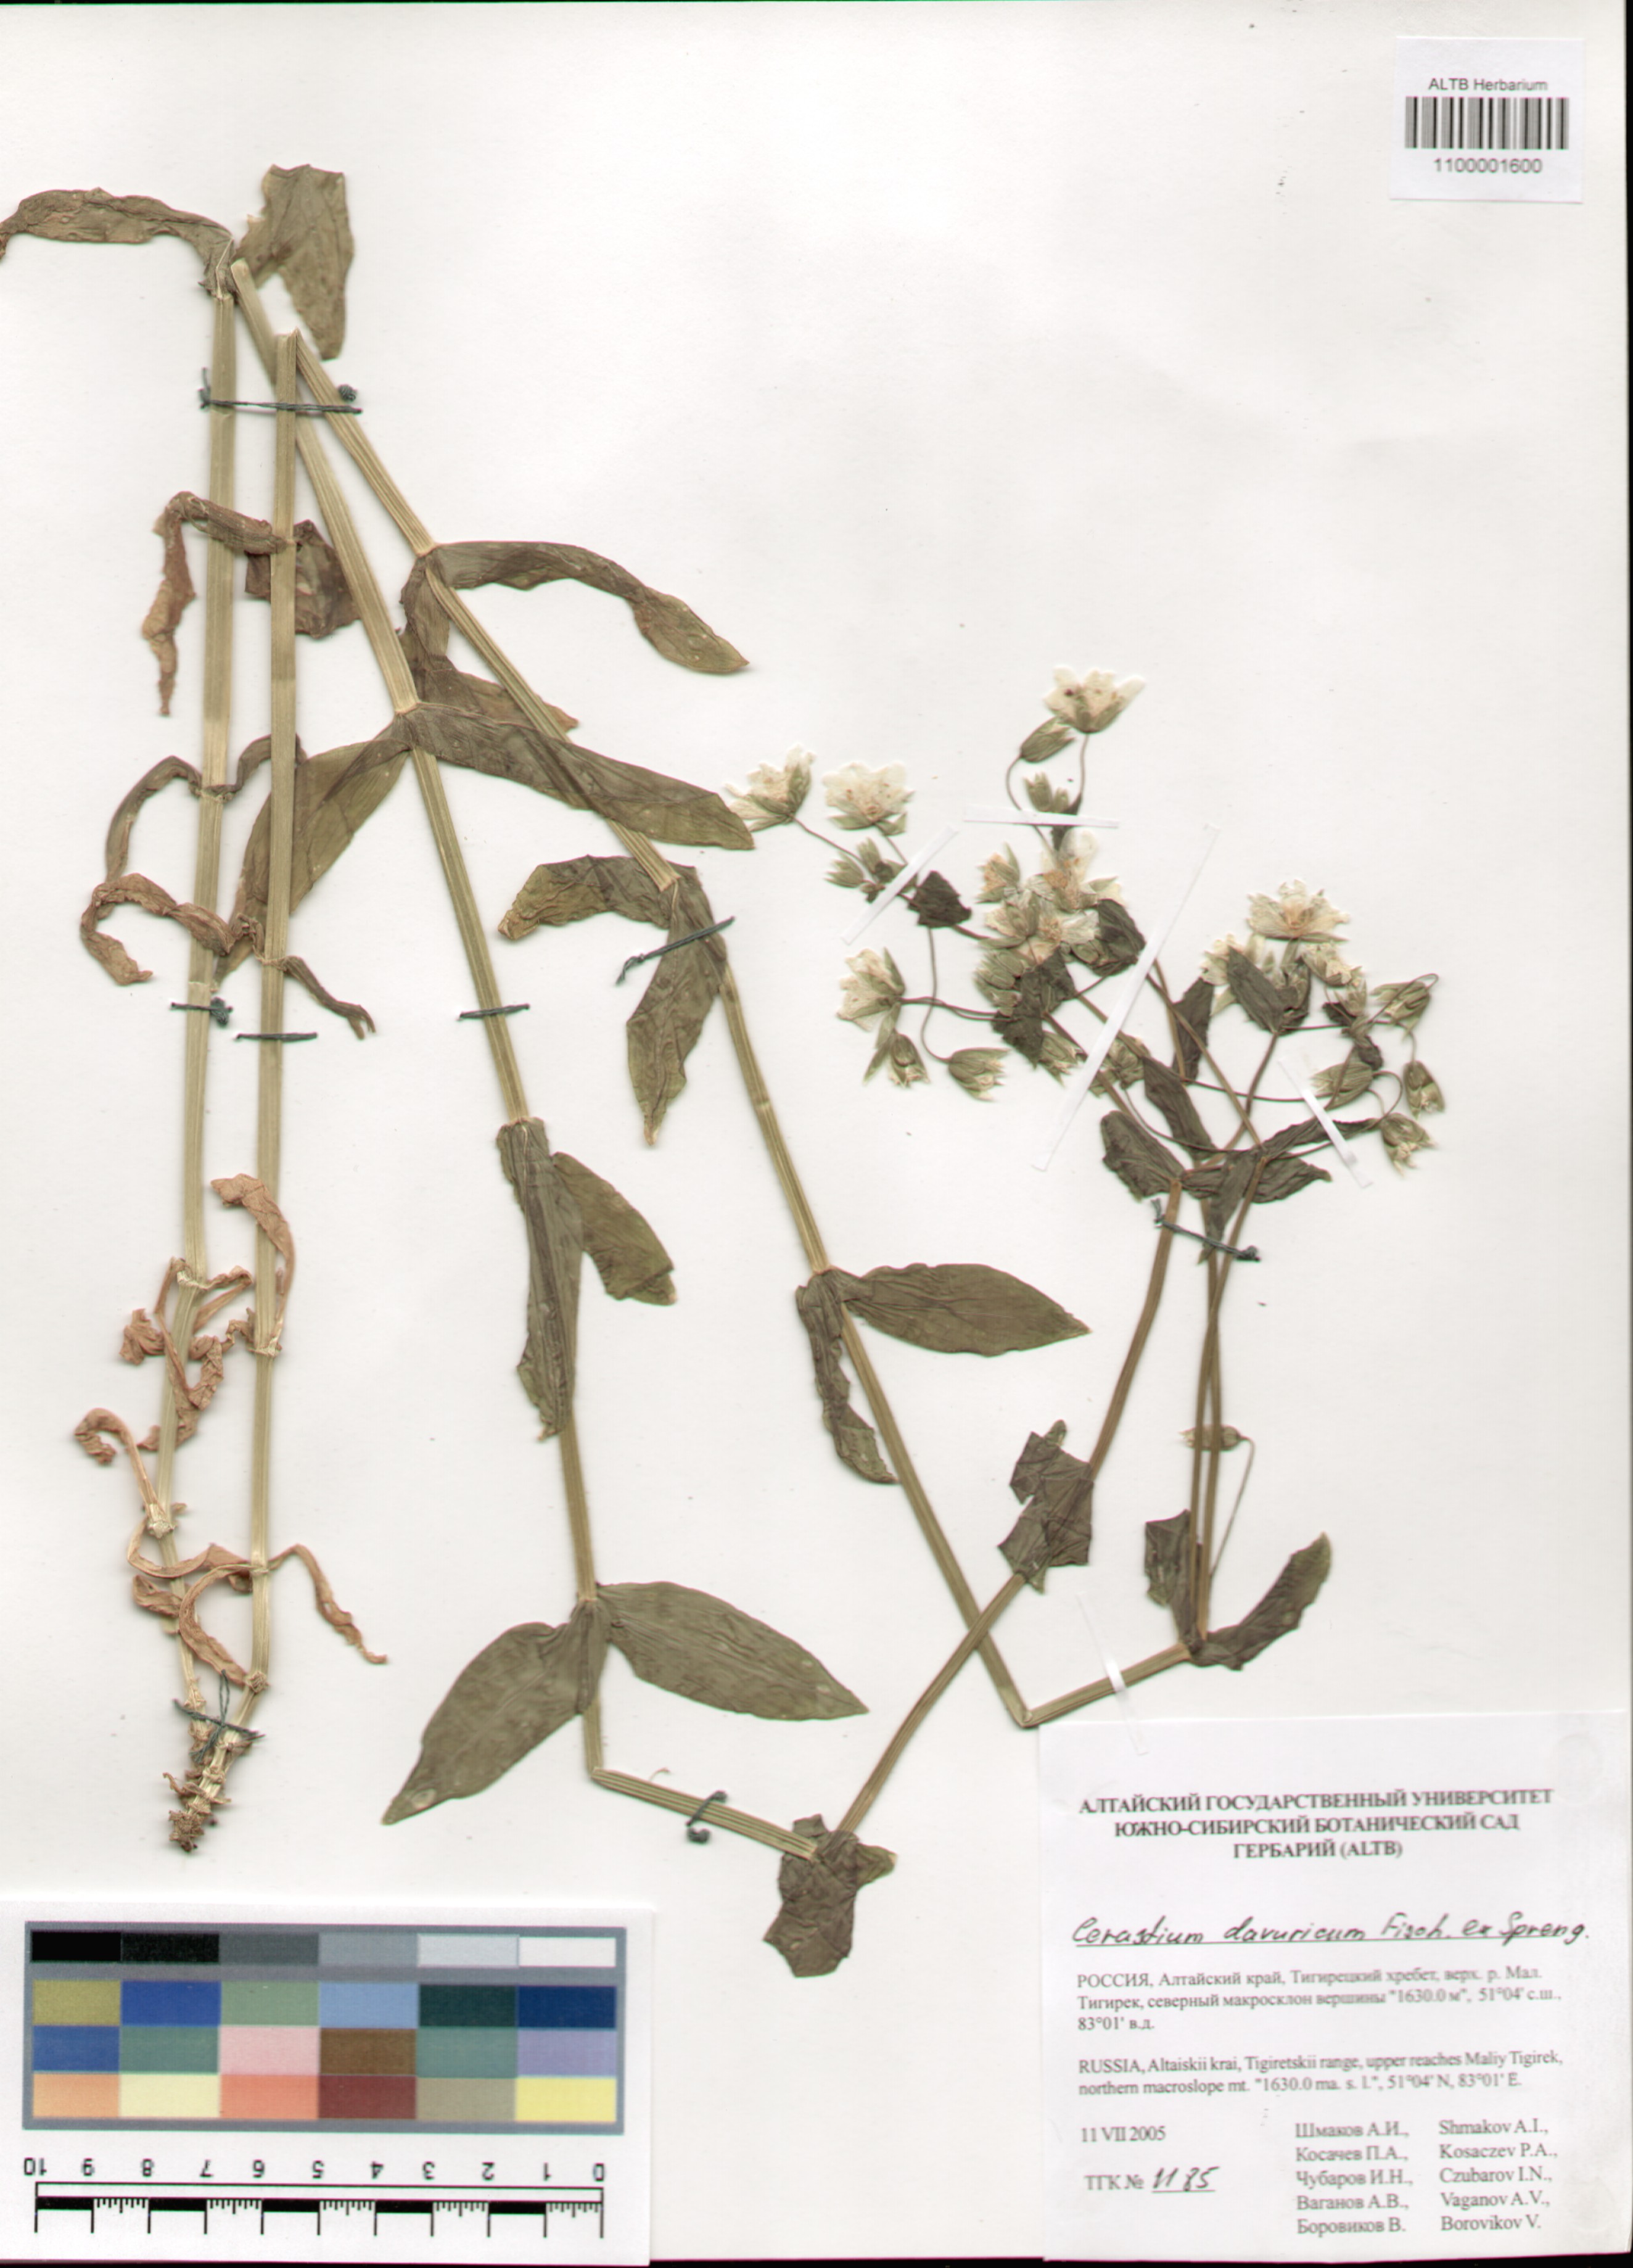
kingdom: Plantae
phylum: Tracheophyta
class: Magnoliopsida
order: Caryophyllales
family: Caryophyllaceae
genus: Dichodon
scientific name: Dichodon davuricum
